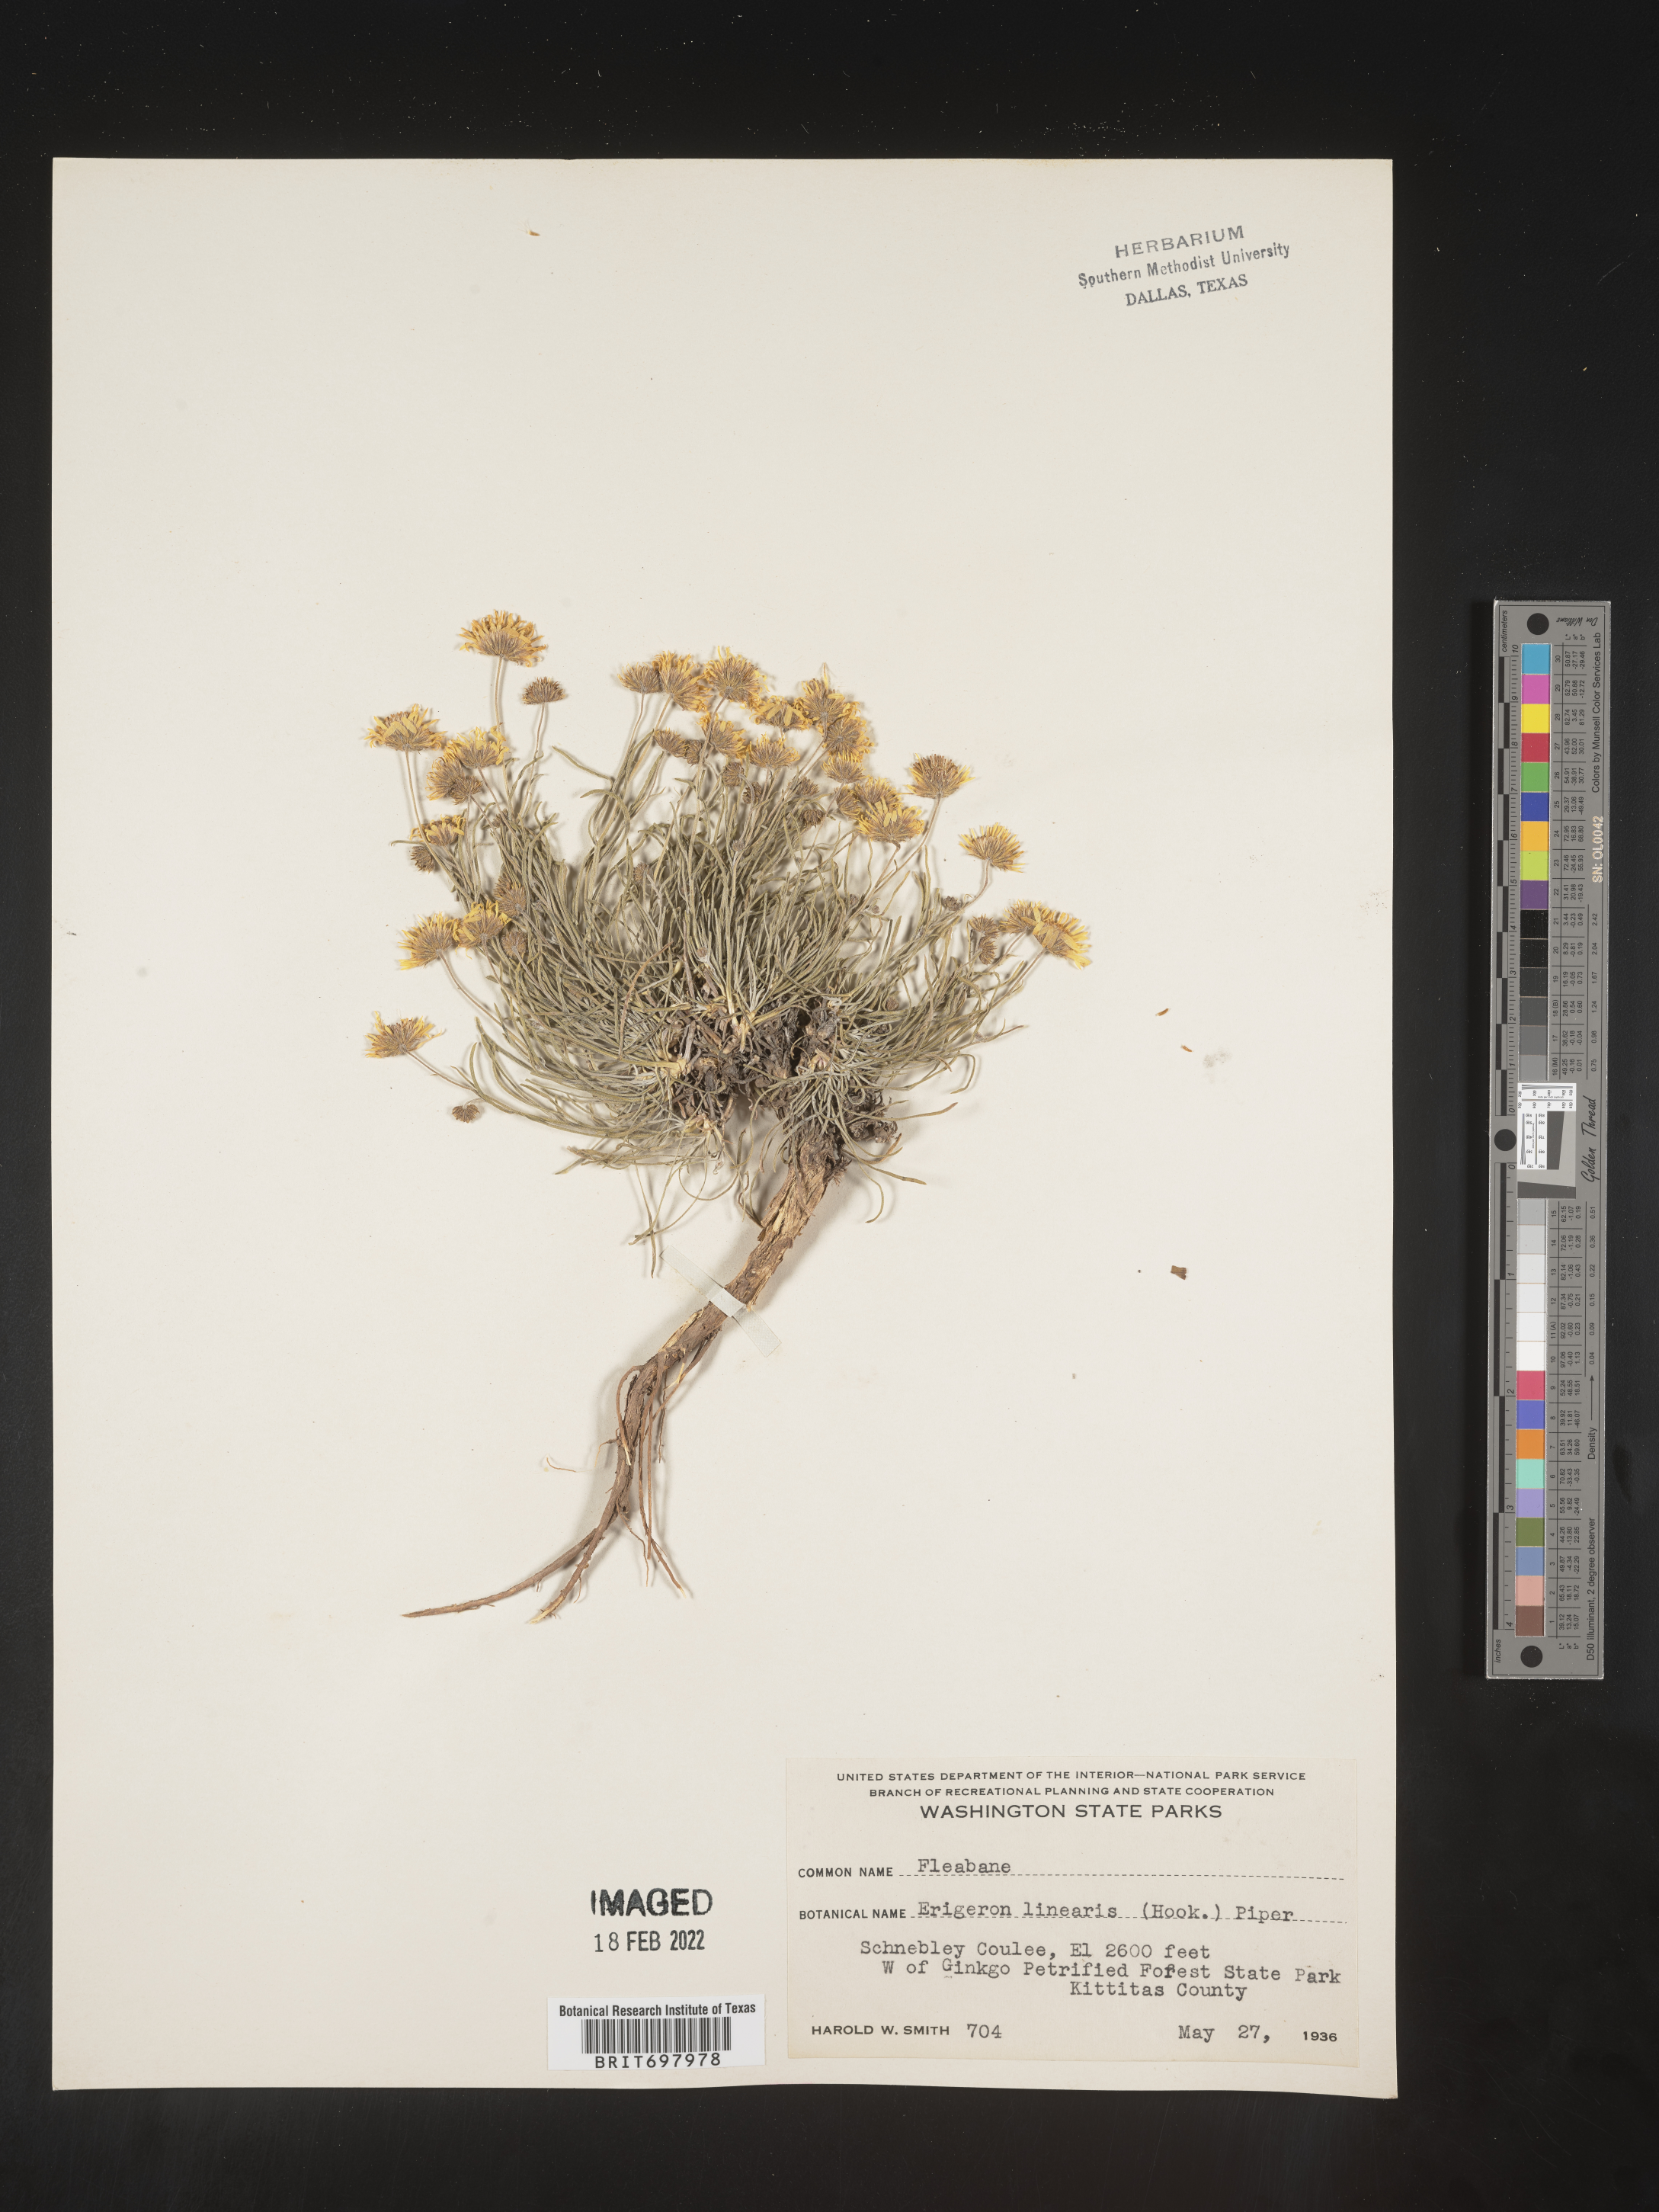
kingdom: Plantae
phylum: Tracheophyta
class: Magnoliopsida
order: Asterales
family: Asteraceae
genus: Erigeron
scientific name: Erigeron linearis
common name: Desert yellow fleabane
